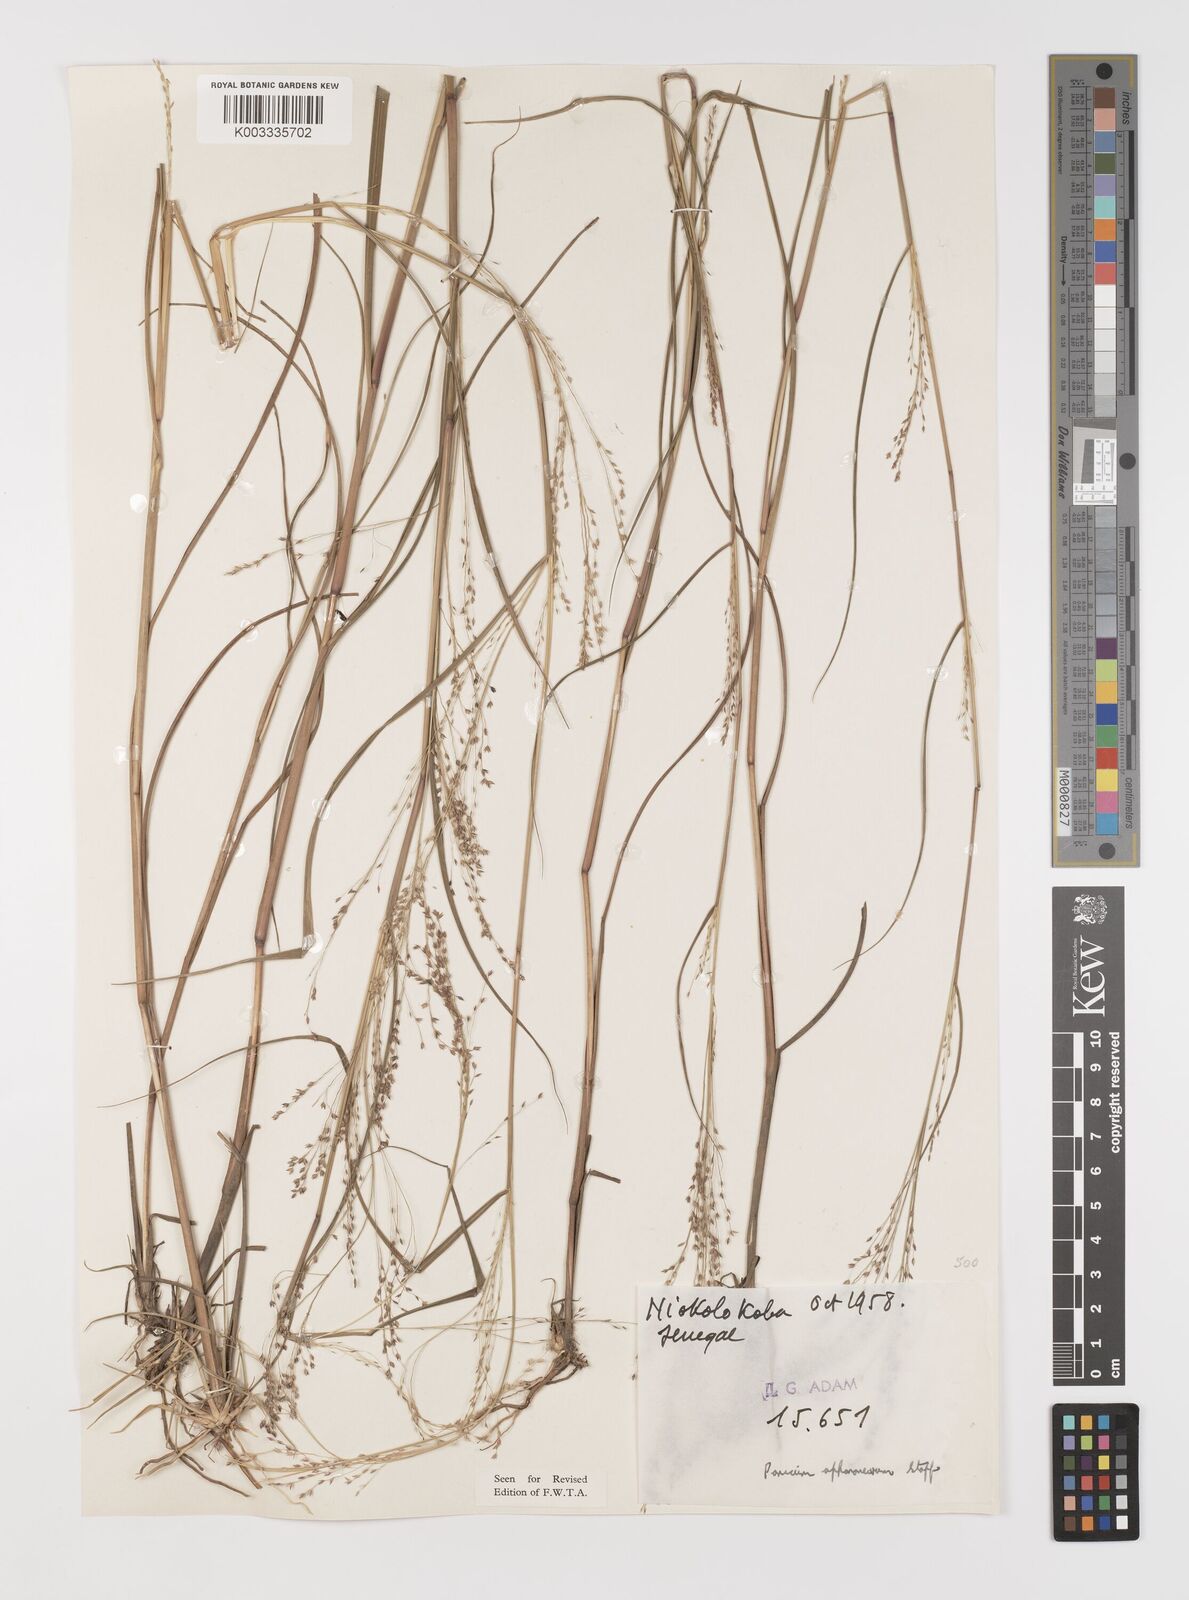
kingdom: Plantae
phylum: Tracheophyta
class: Liliopsida
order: Poales
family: Poaceae
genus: Panicum
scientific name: Panicum fluviicola
